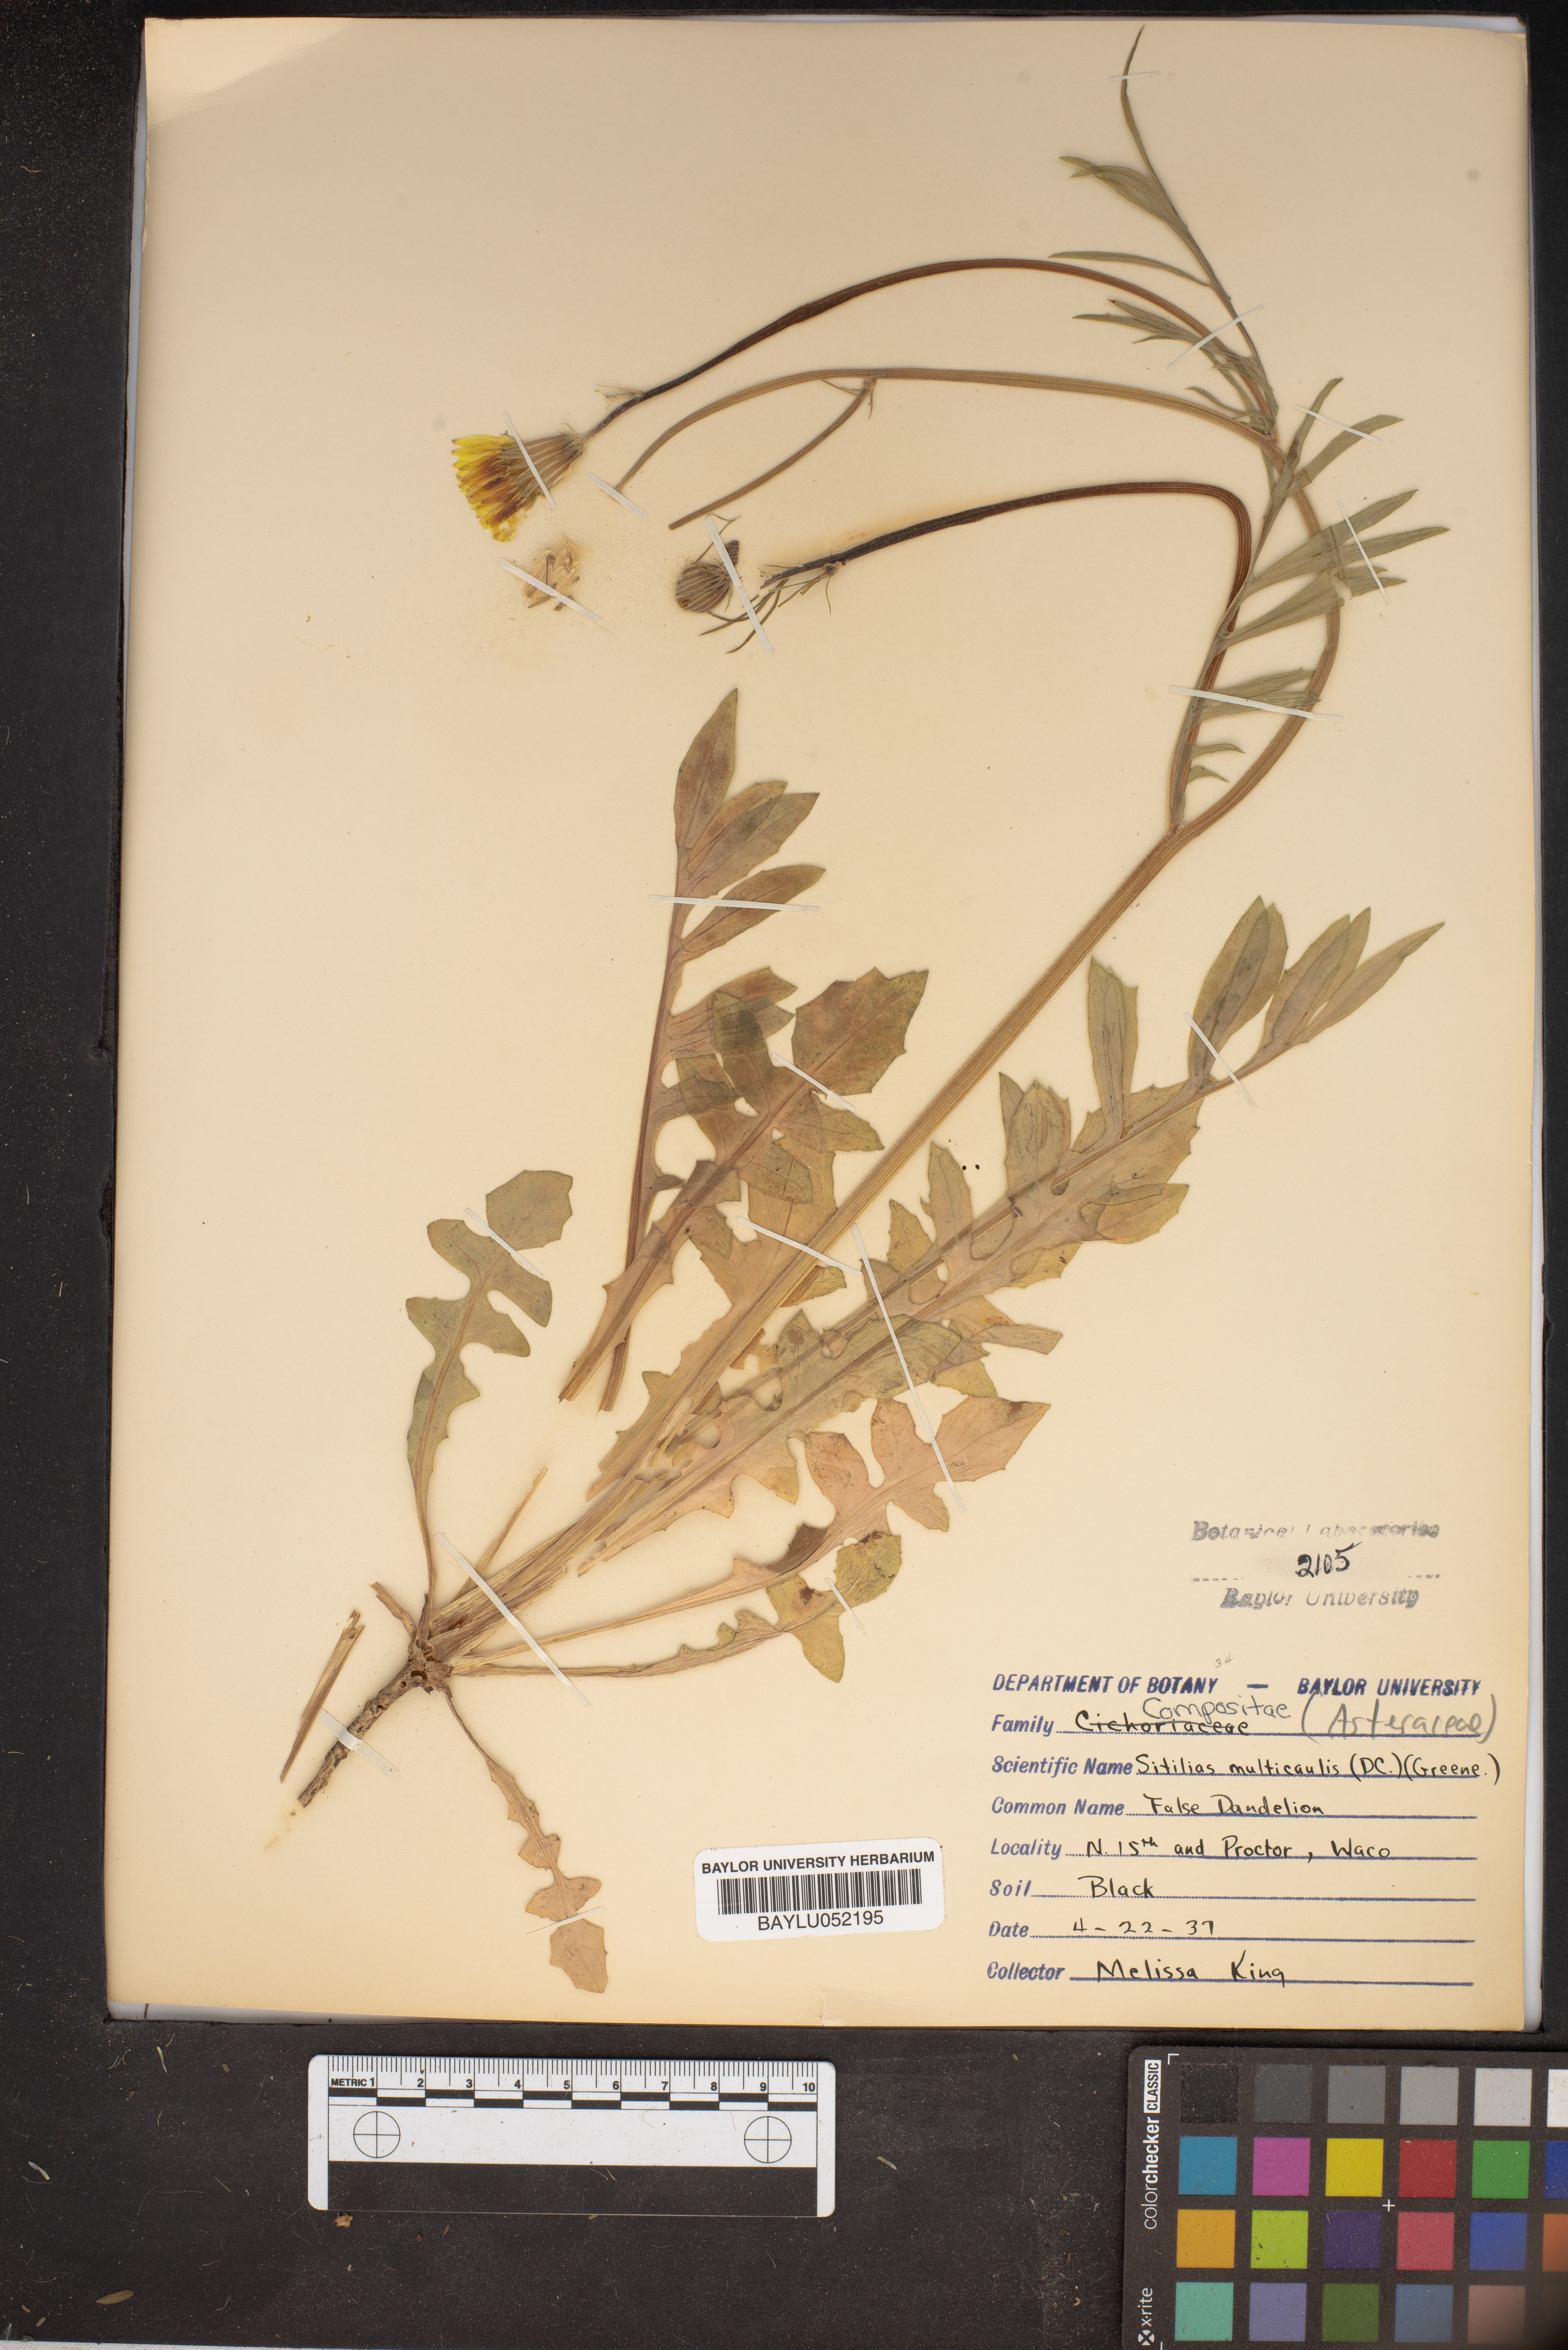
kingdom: Plantae
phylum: Tracheophyta
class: Magnoliopsida
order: Asterales
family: Asteraceae
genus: Pyrrhopappus
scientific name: Pyrrhopappus pauciflorus
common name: Texas false dandelion
